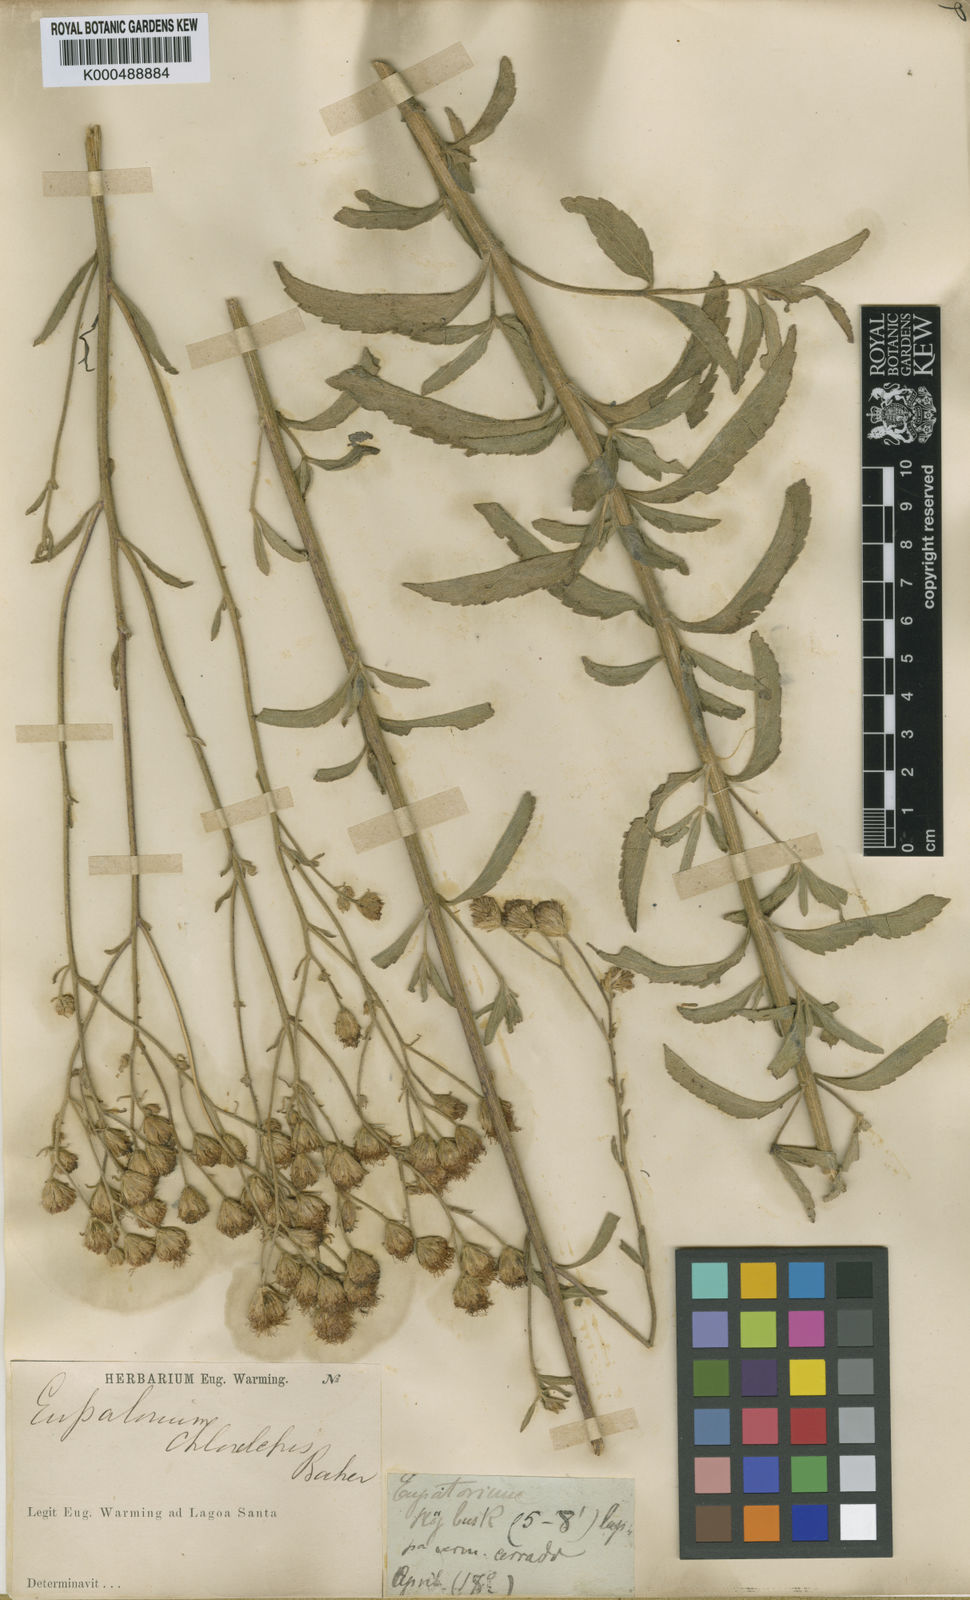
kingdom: Plantae
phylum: Tracheophyta
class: Magnoliopsida
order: Asterales
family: Asteraceae
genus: Campuloclinium
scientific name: Campuloclinium chlorolepis
